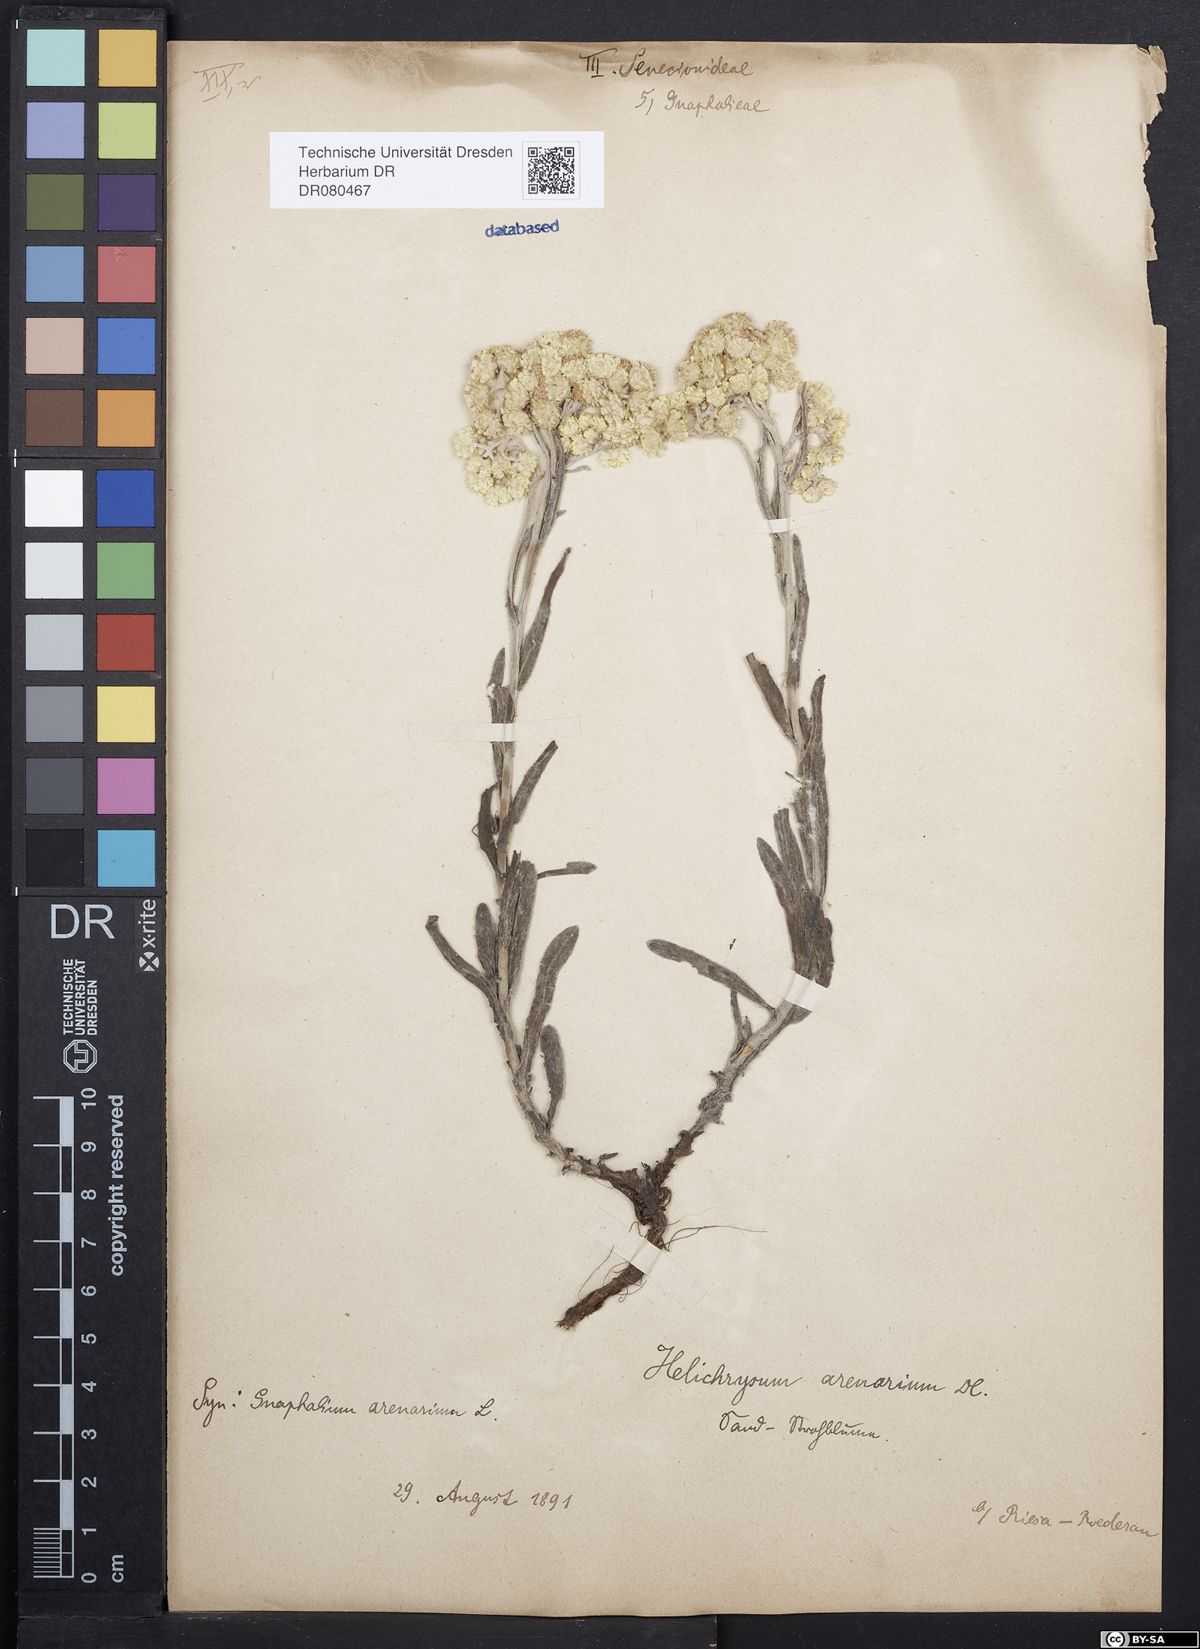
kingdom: Plantae
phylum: Tracheophyta
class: Magnoliopsida
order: Asterales
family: Asteraceae
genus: Helichrysum
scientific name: Helichrysum arenarium
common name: Strawflower
